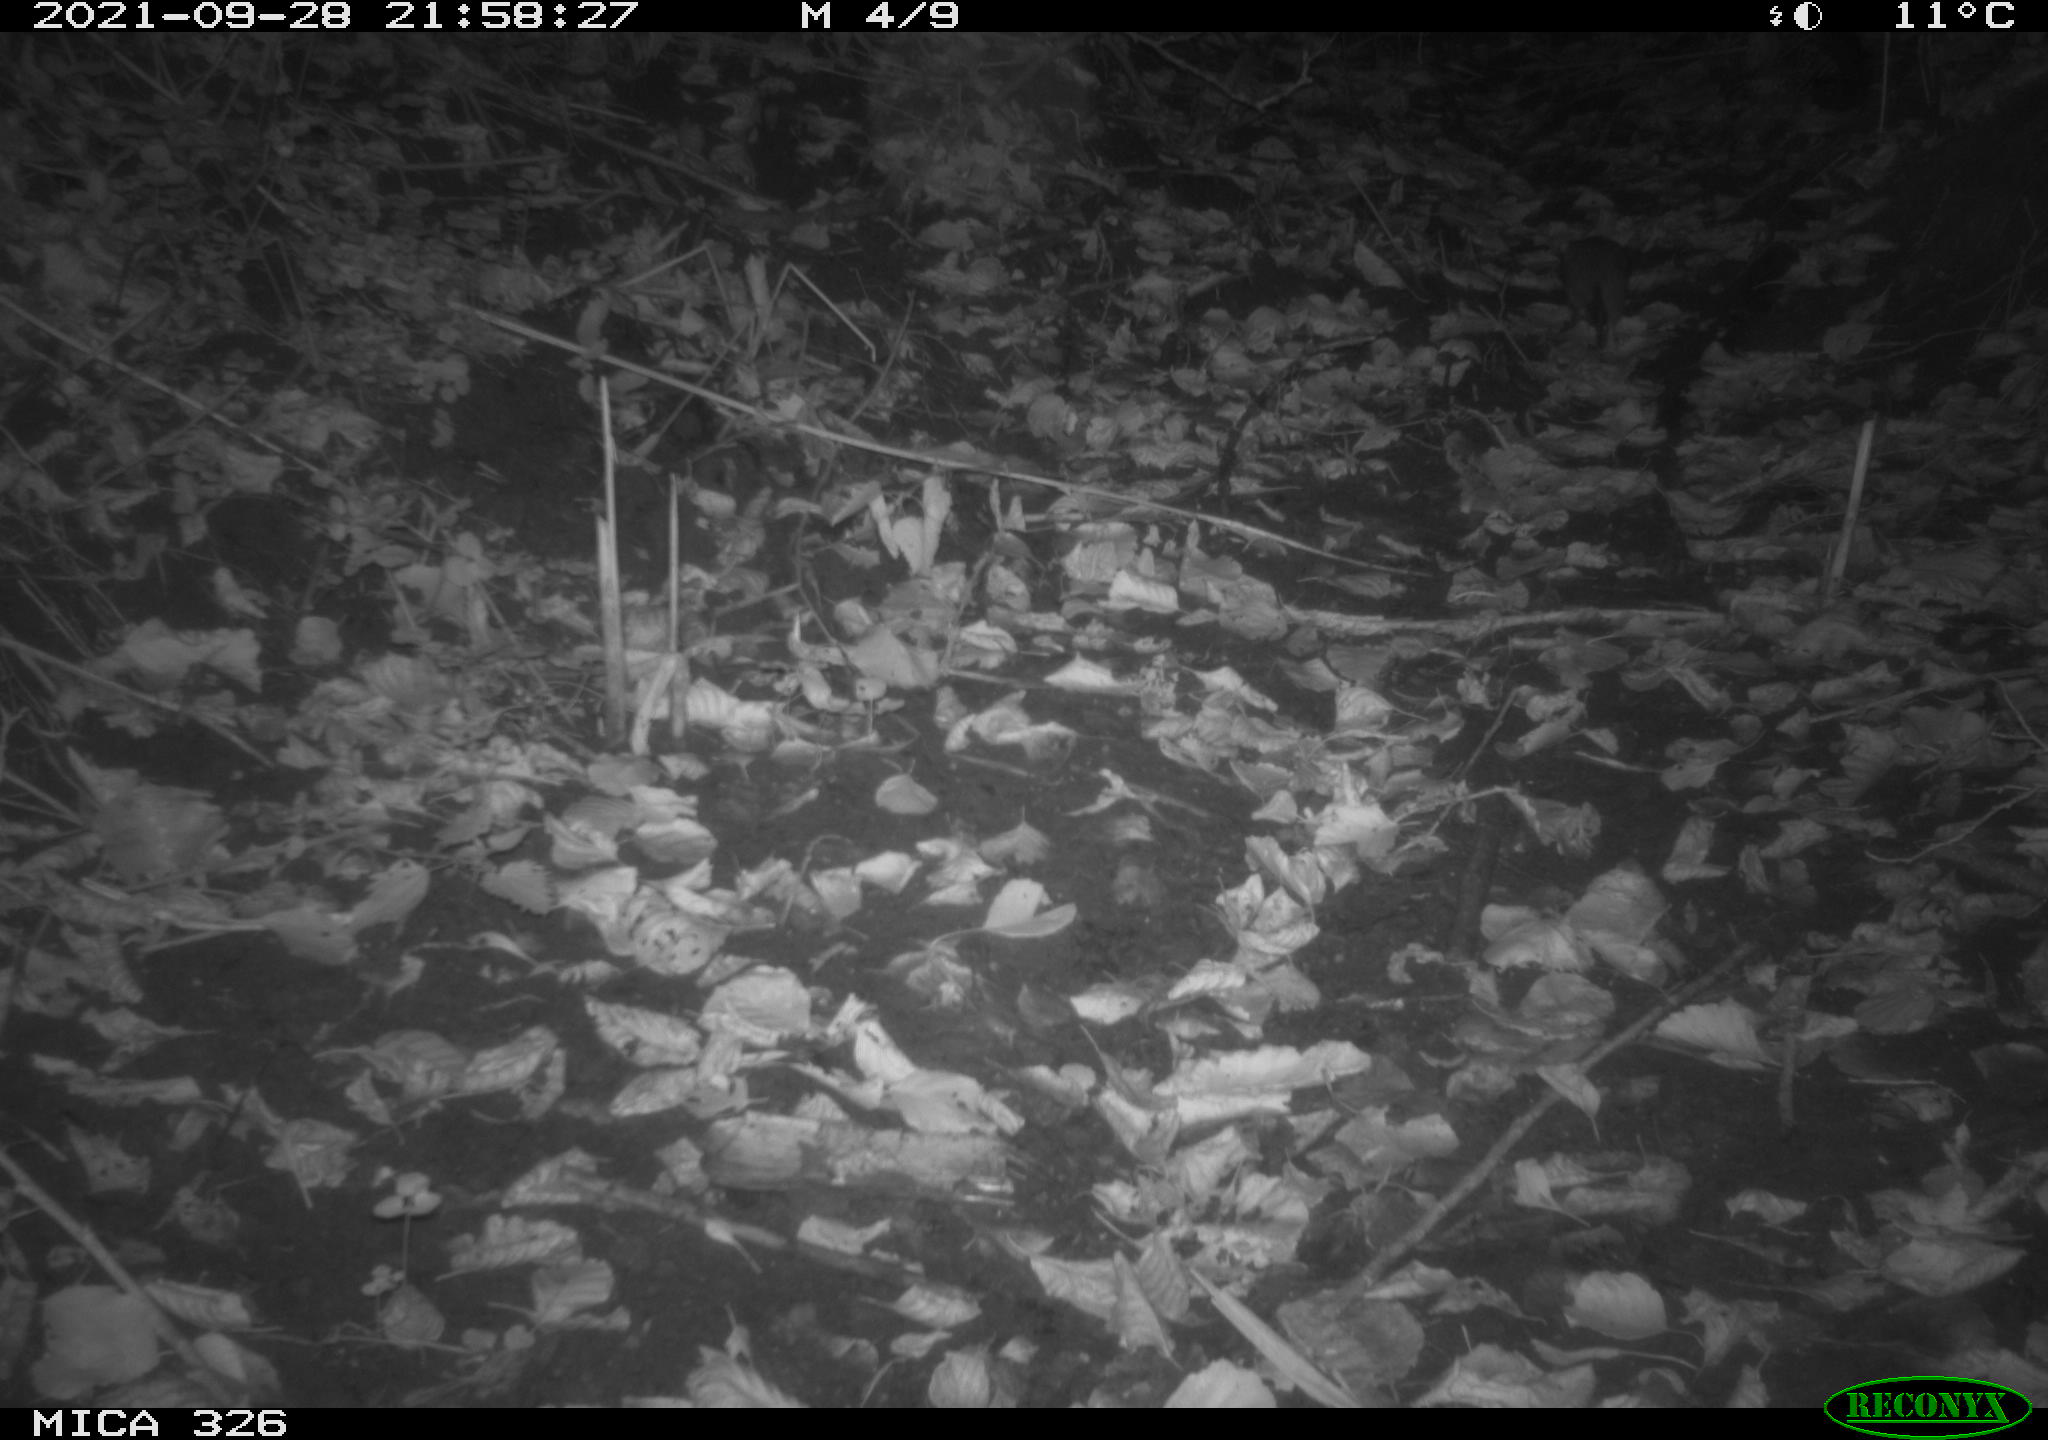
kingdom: Animalia
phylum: Chordata
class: Mammalia
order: Rodentia
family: Muridae
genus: Rattus
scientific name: Rattus norvegicus
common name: Brown rat
